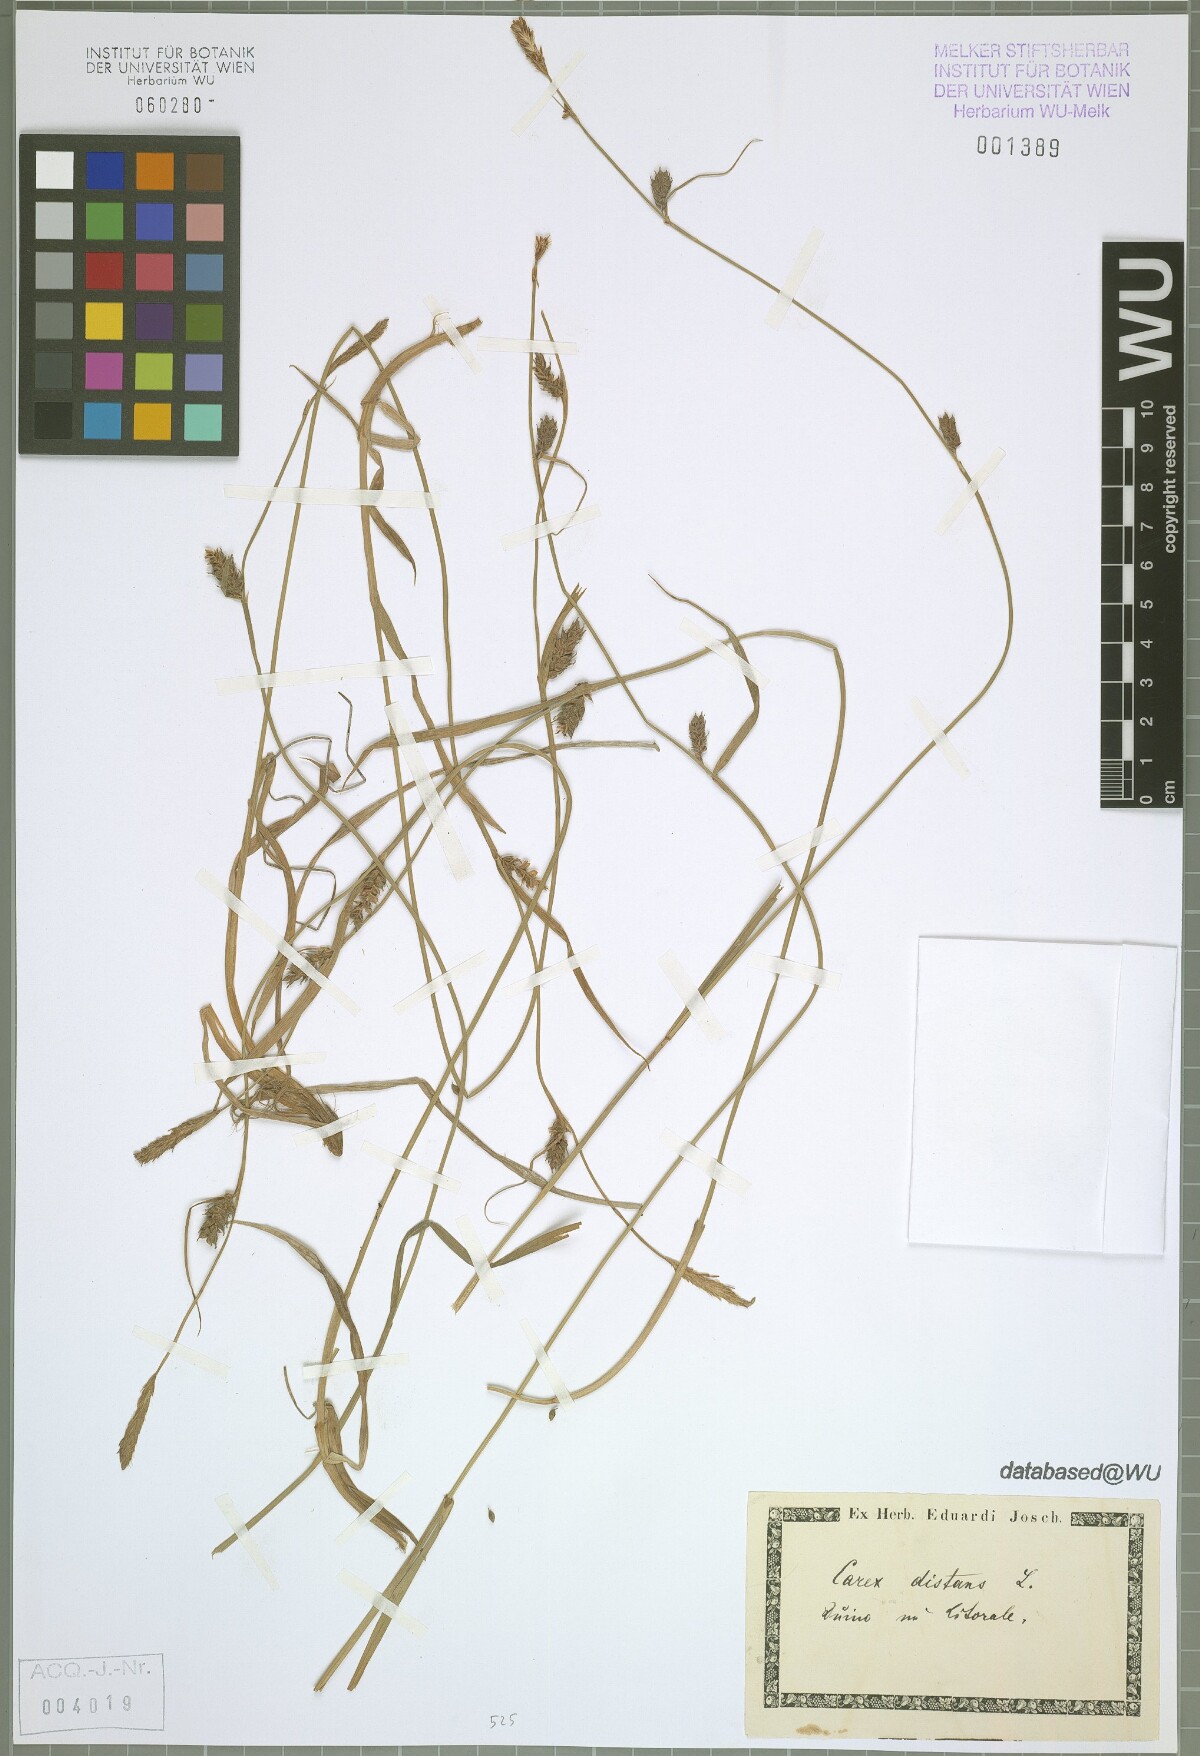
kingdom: Plantae
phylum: Tracheophyta
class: Liliopsida
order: Poales
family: Cyperaceae
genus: Carex
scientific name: Carex distans
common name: Distant sedge
